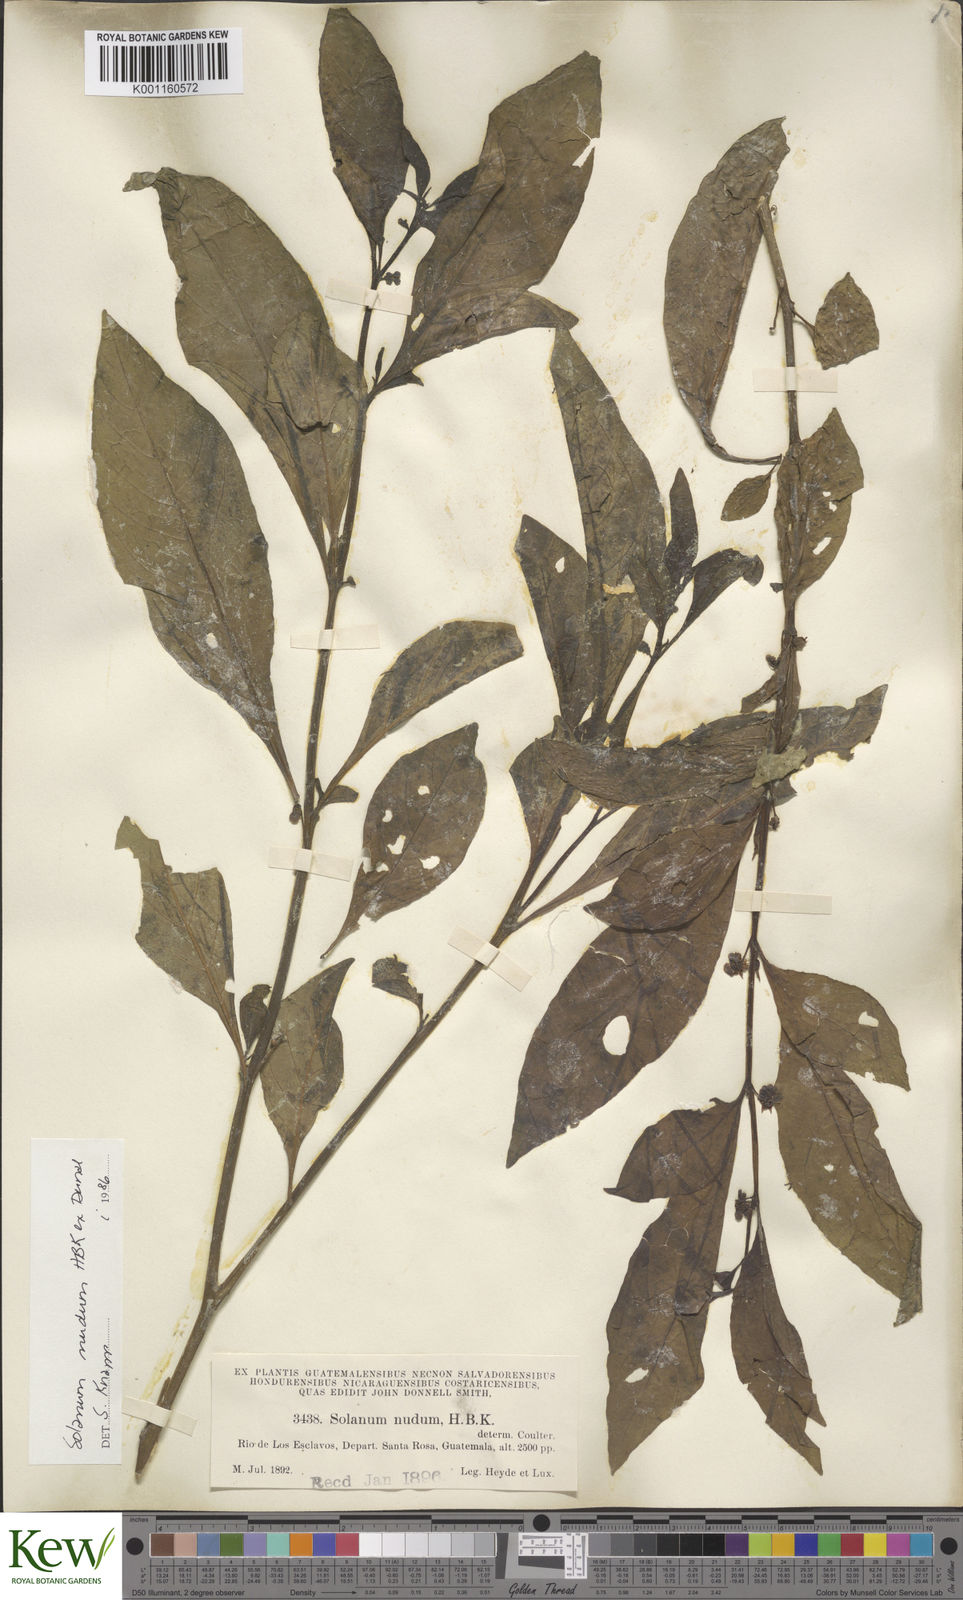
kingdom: Plantae
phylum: Tracheophyta
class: Magnoliopsida
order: Solanales
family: Solanaceae
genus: Solanum
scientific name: Solanum nudum
